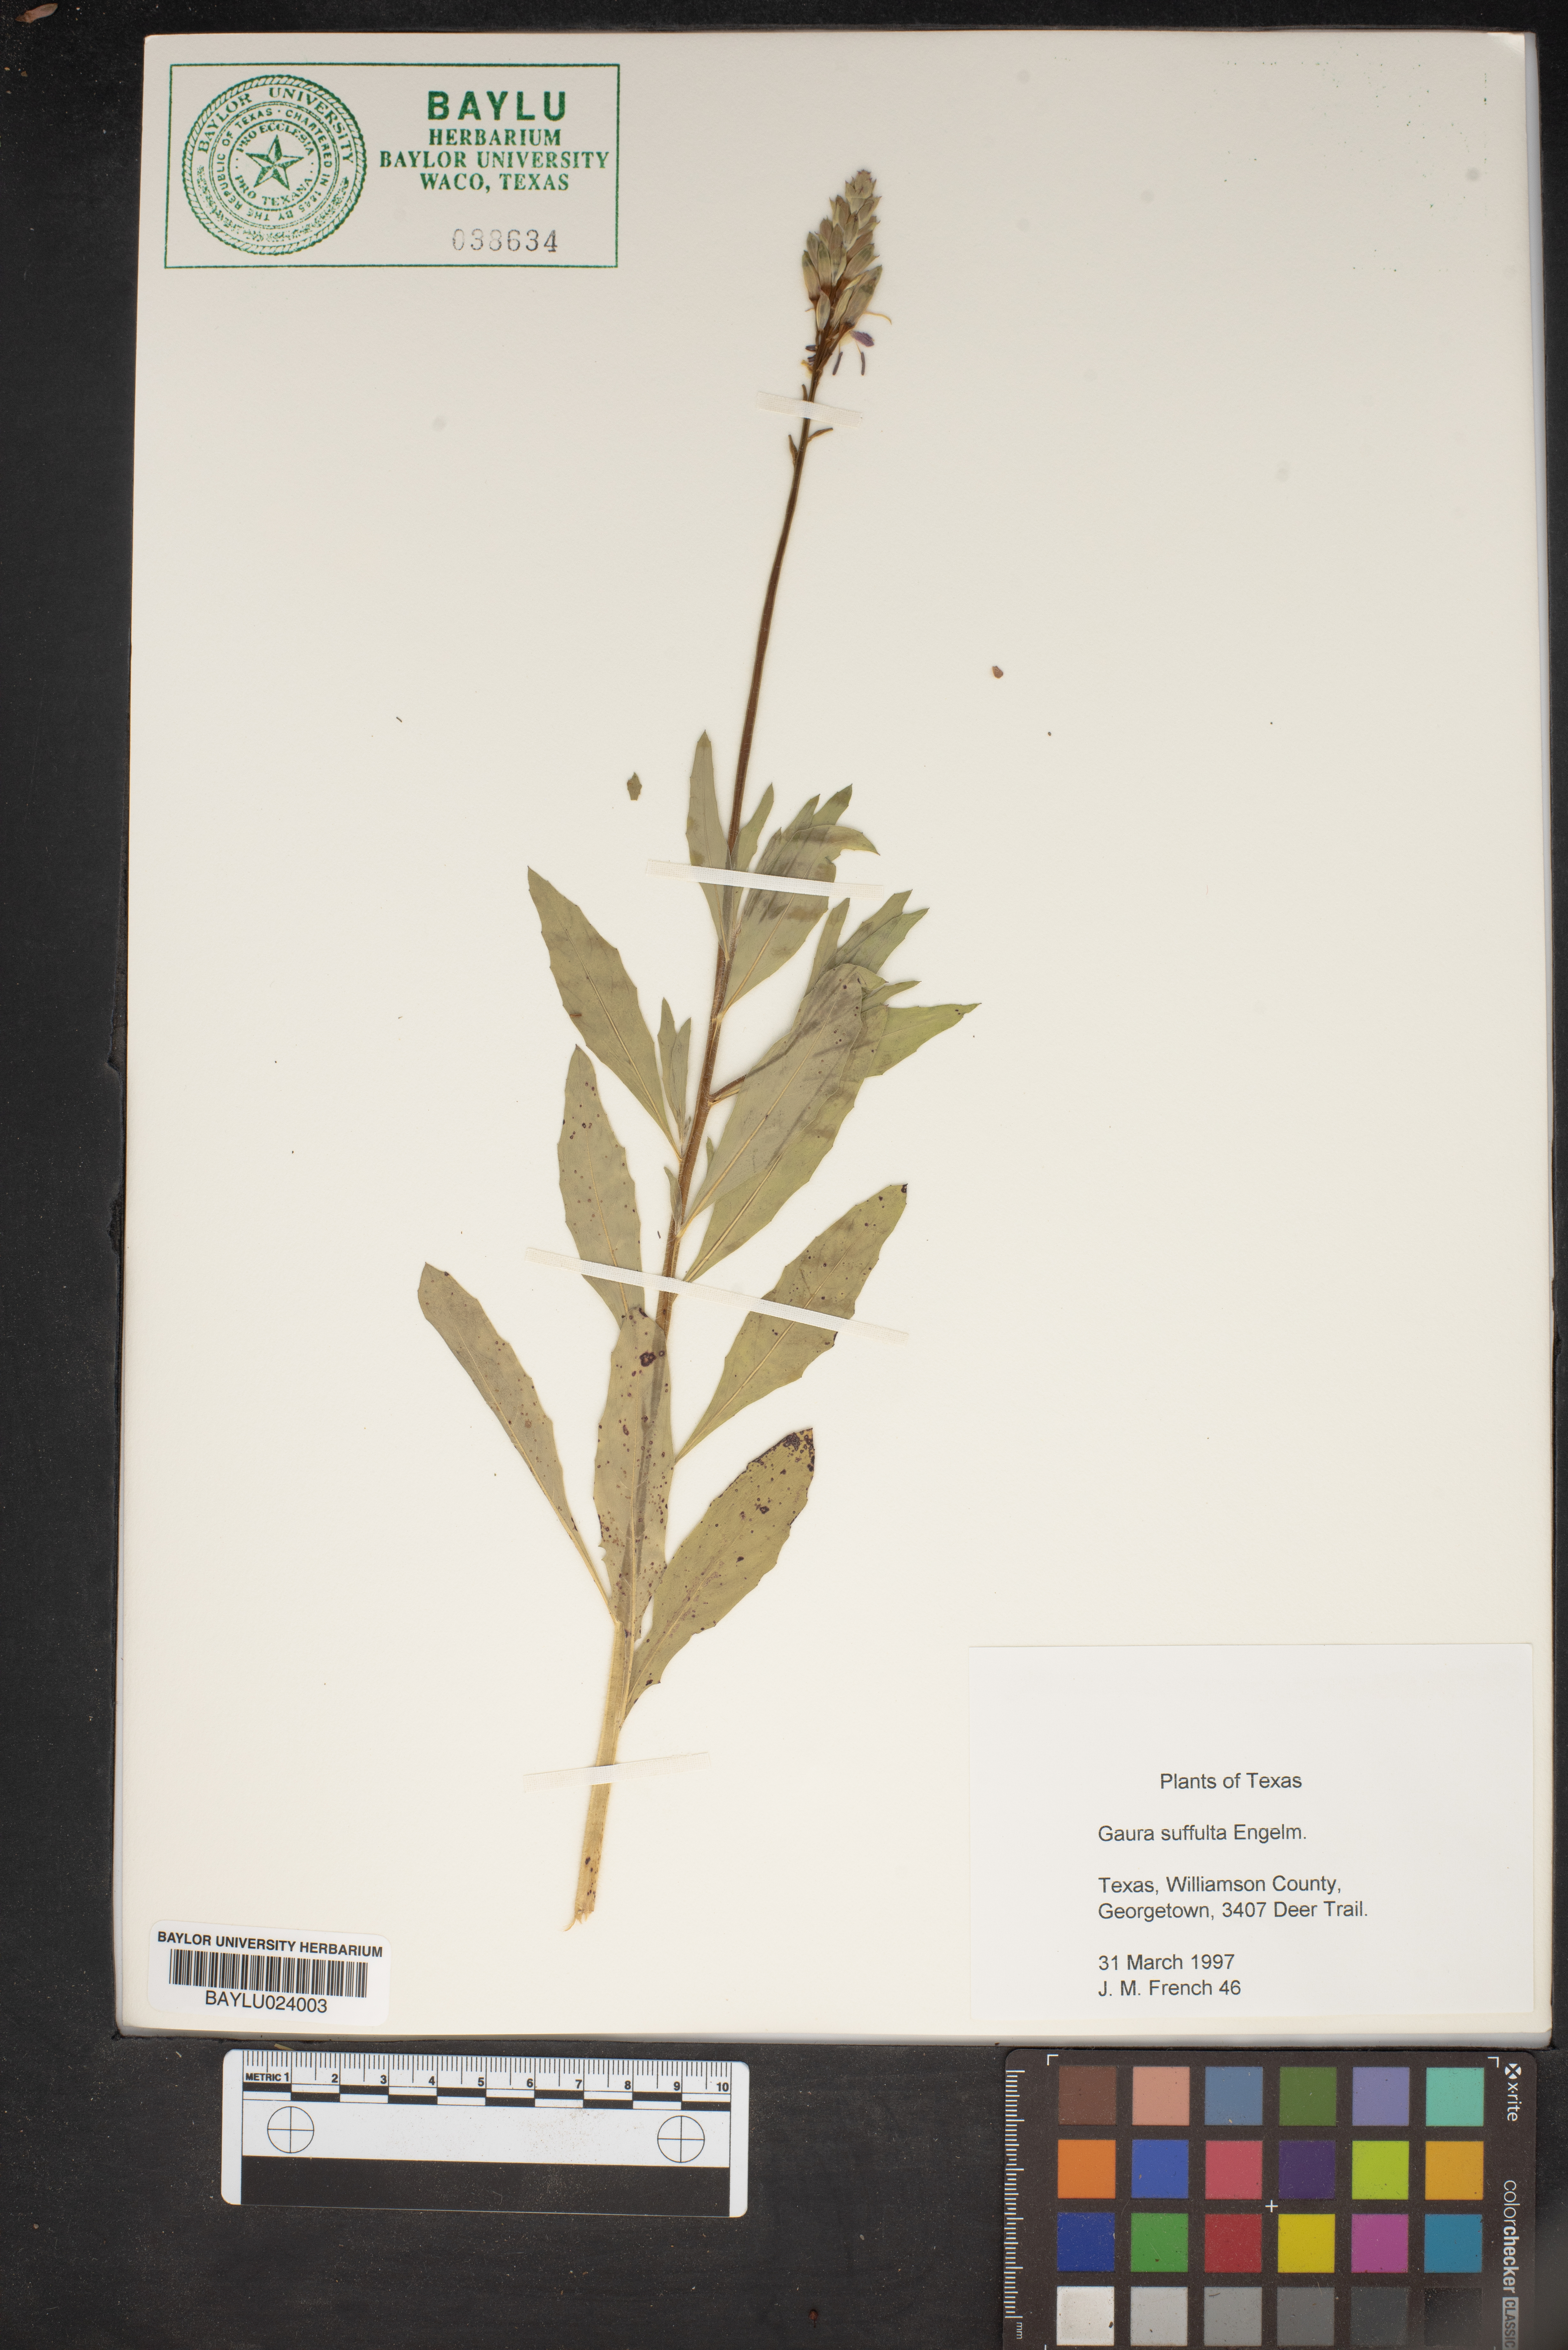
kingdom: Plantae
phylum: Tracheophyta
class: Magnoliopsida
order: Myrtales
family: Onagraceae
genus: Oenothera
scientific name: Oenothera Gaura suffulta
